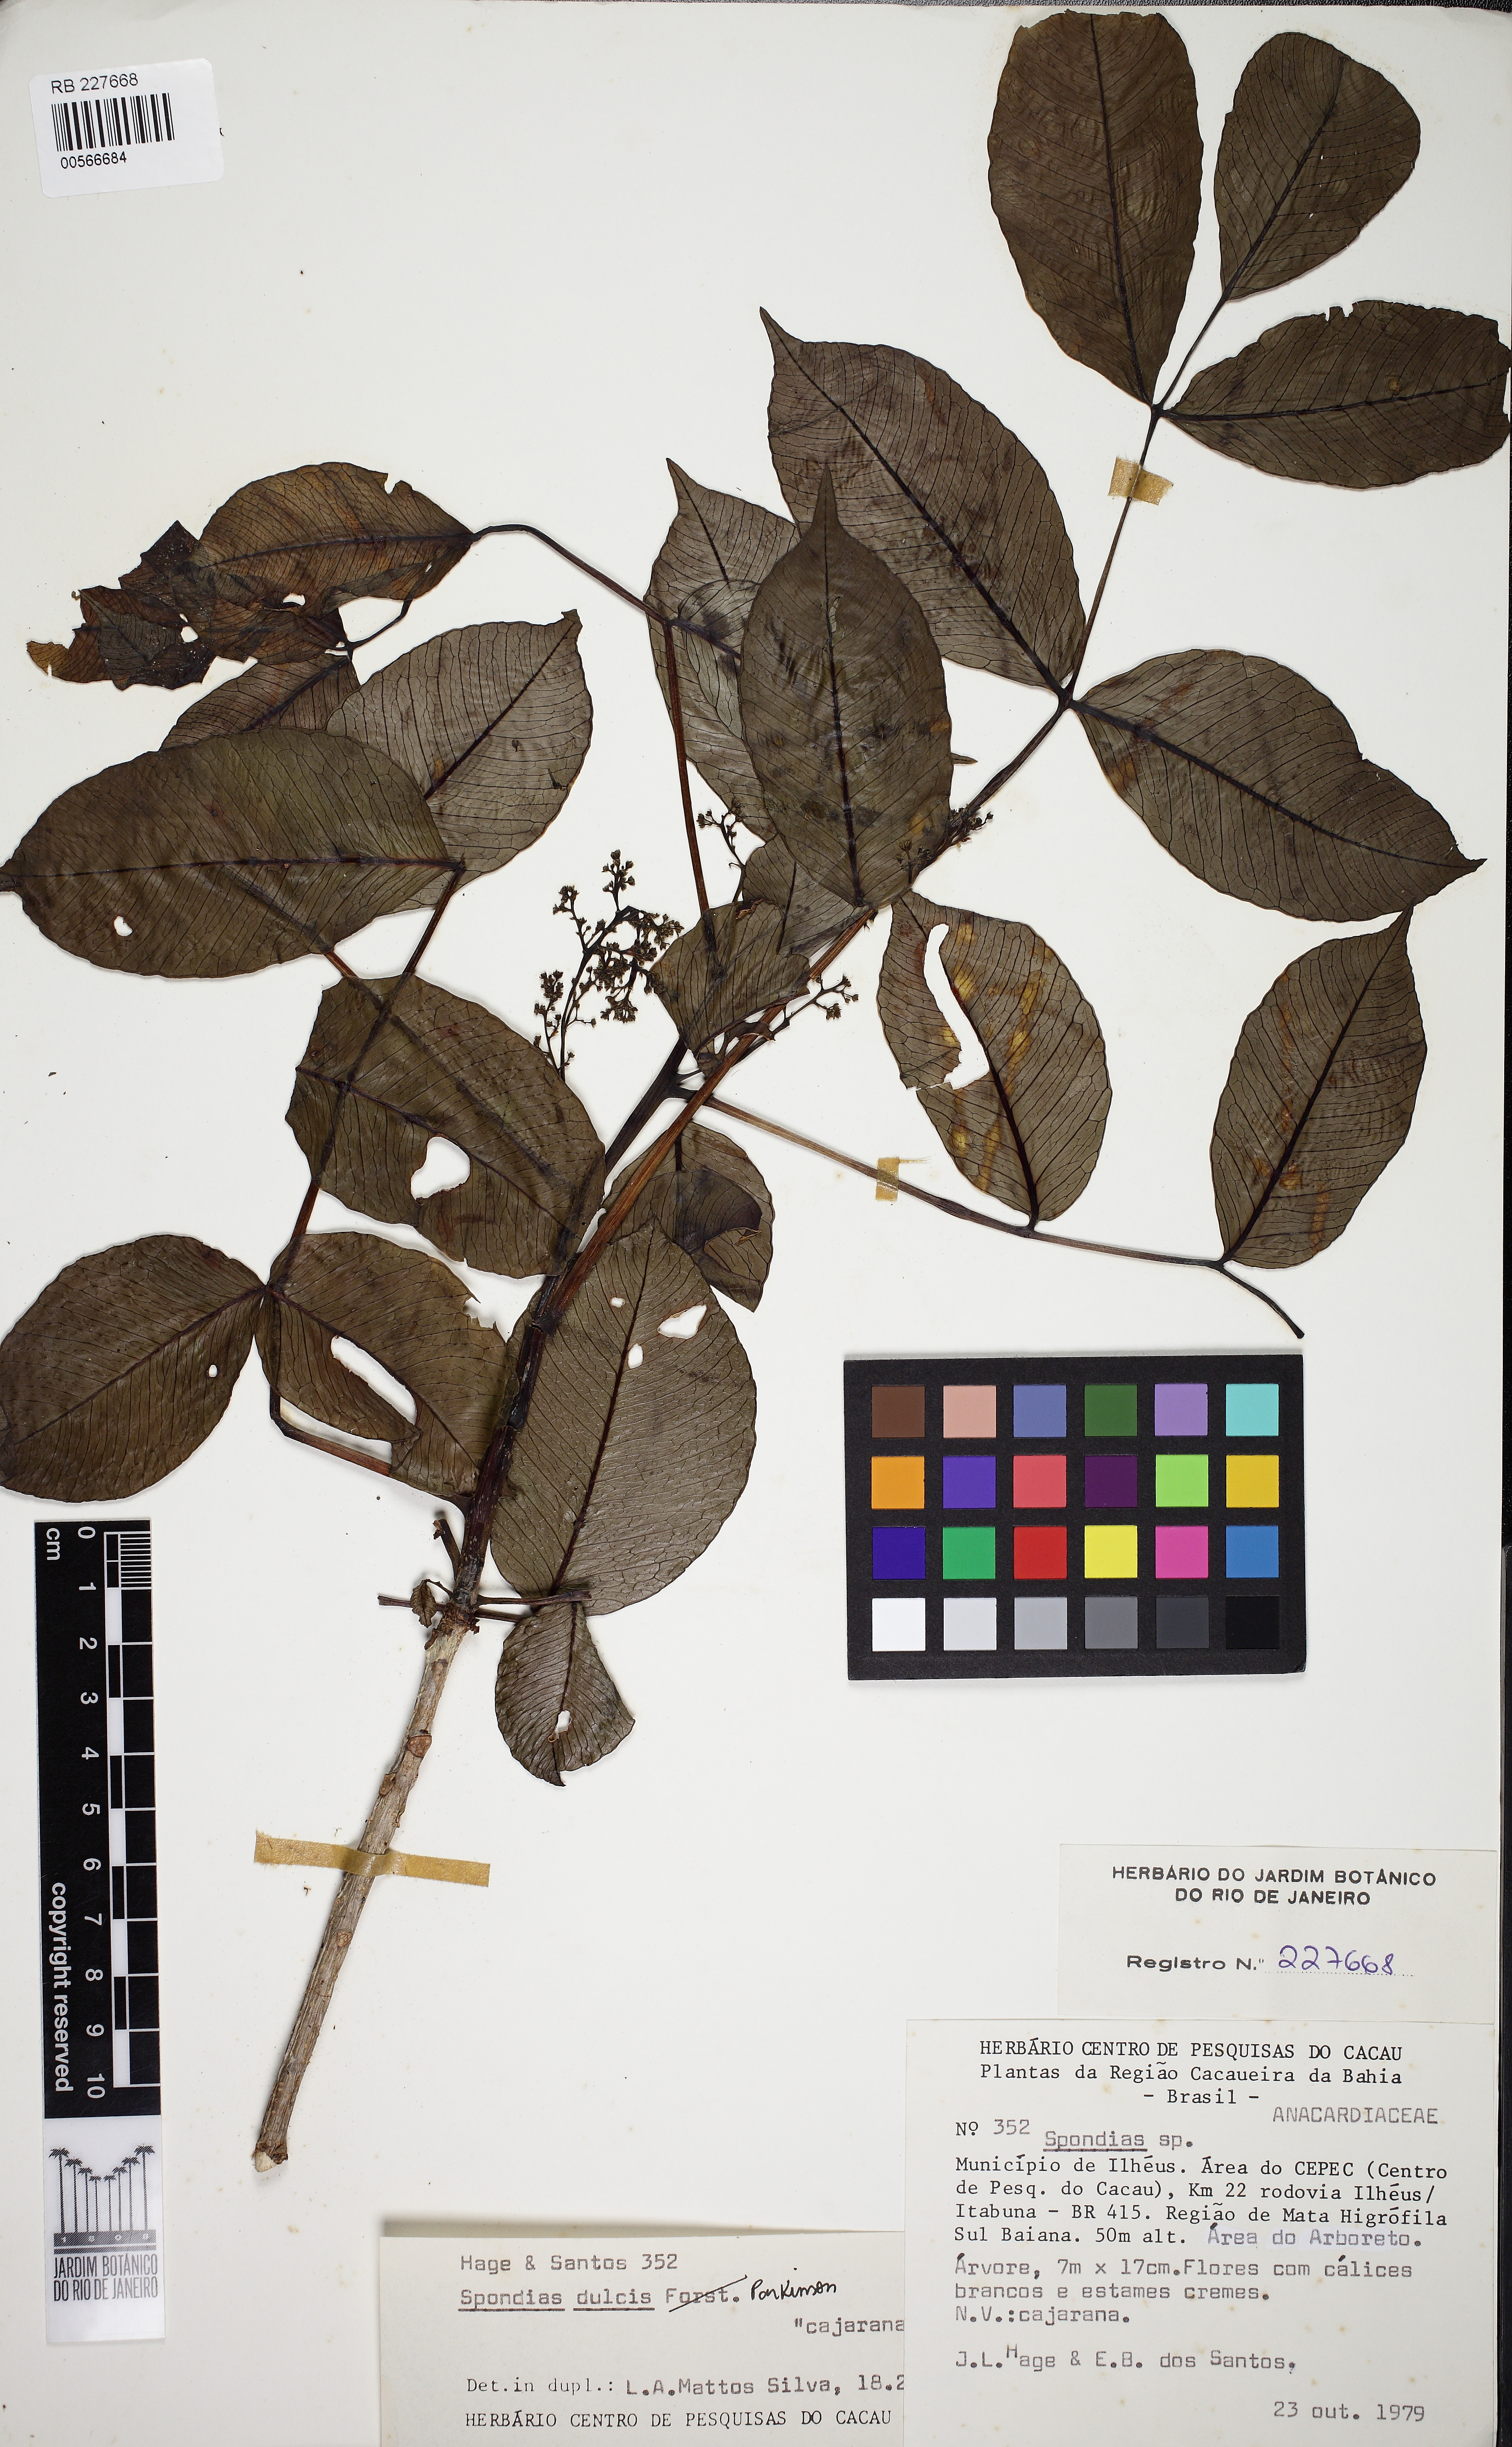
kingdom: Plantae
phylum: Tracheophyta
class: Magnoliopsida
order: Sapindales
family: Anacardiaceae
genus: Spondias
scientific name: Spondias venulosa
